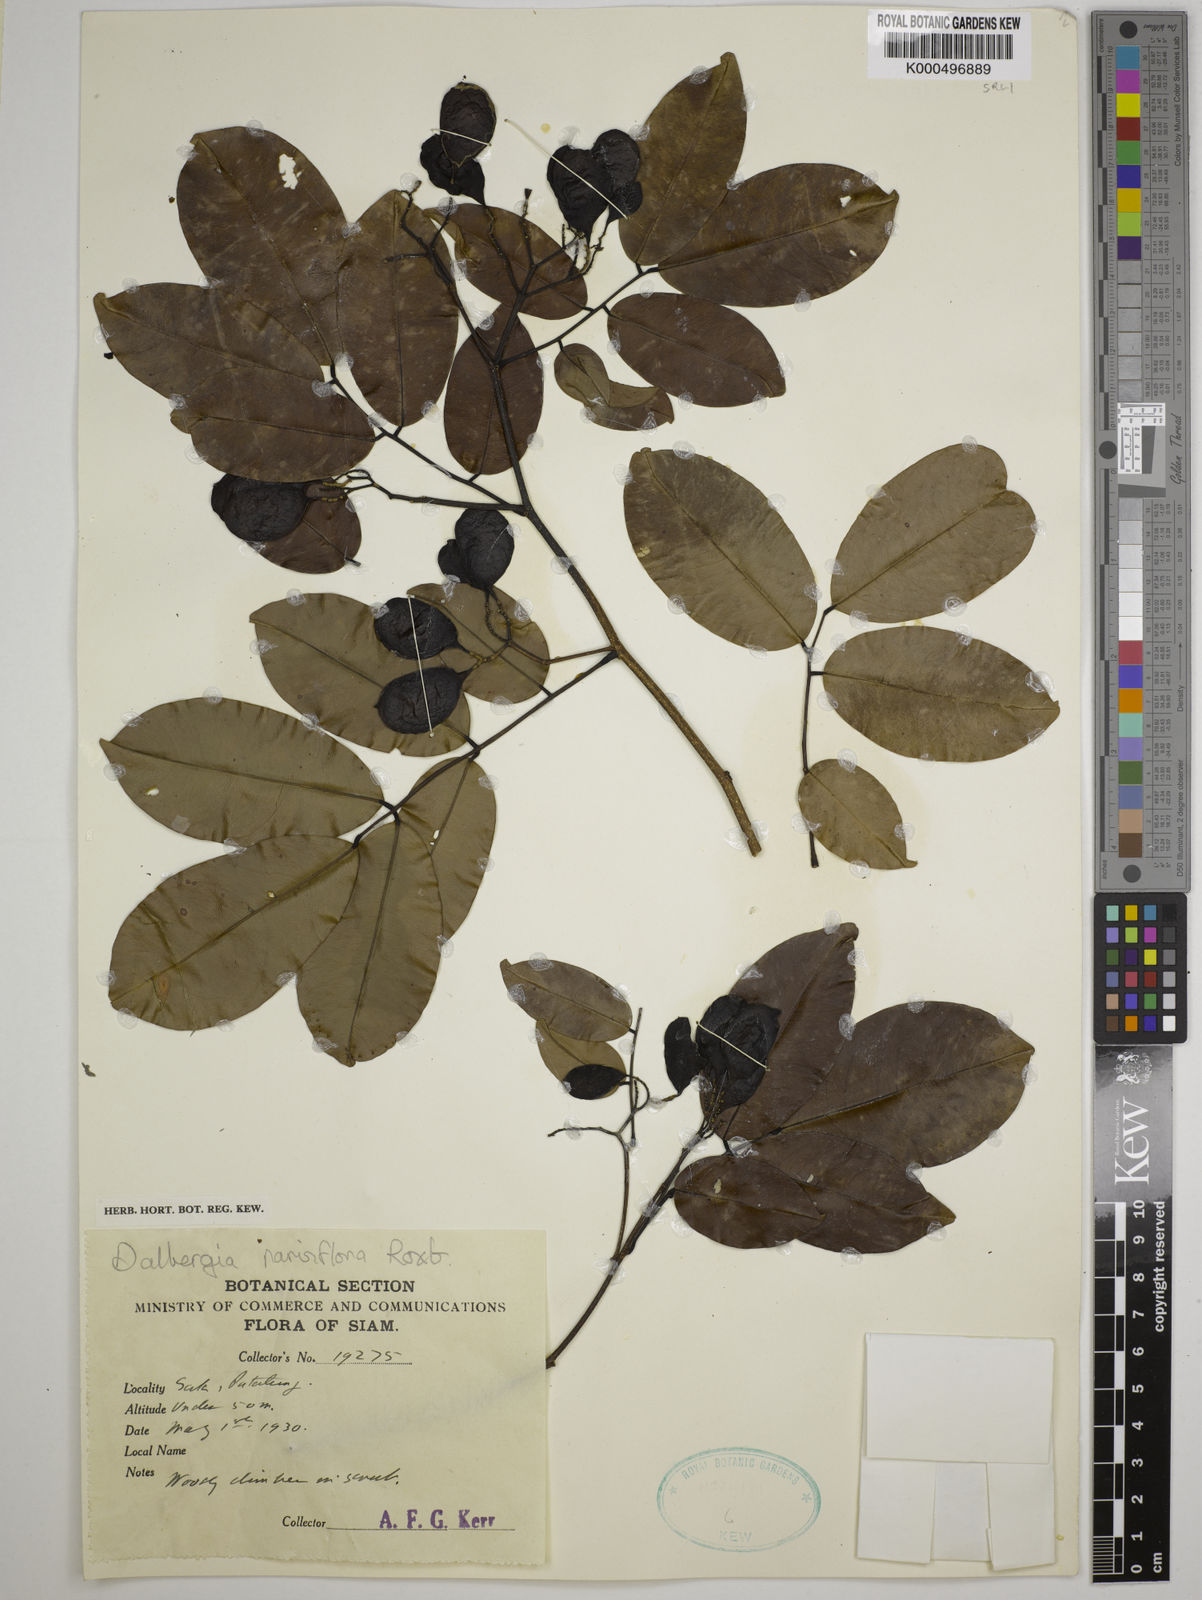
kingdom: Plantae
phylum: Tracheophyta
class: Magnoliopsida
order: Fabales
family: Fabaceae
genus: Dalbergia
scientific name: Dalbergia parviflora
